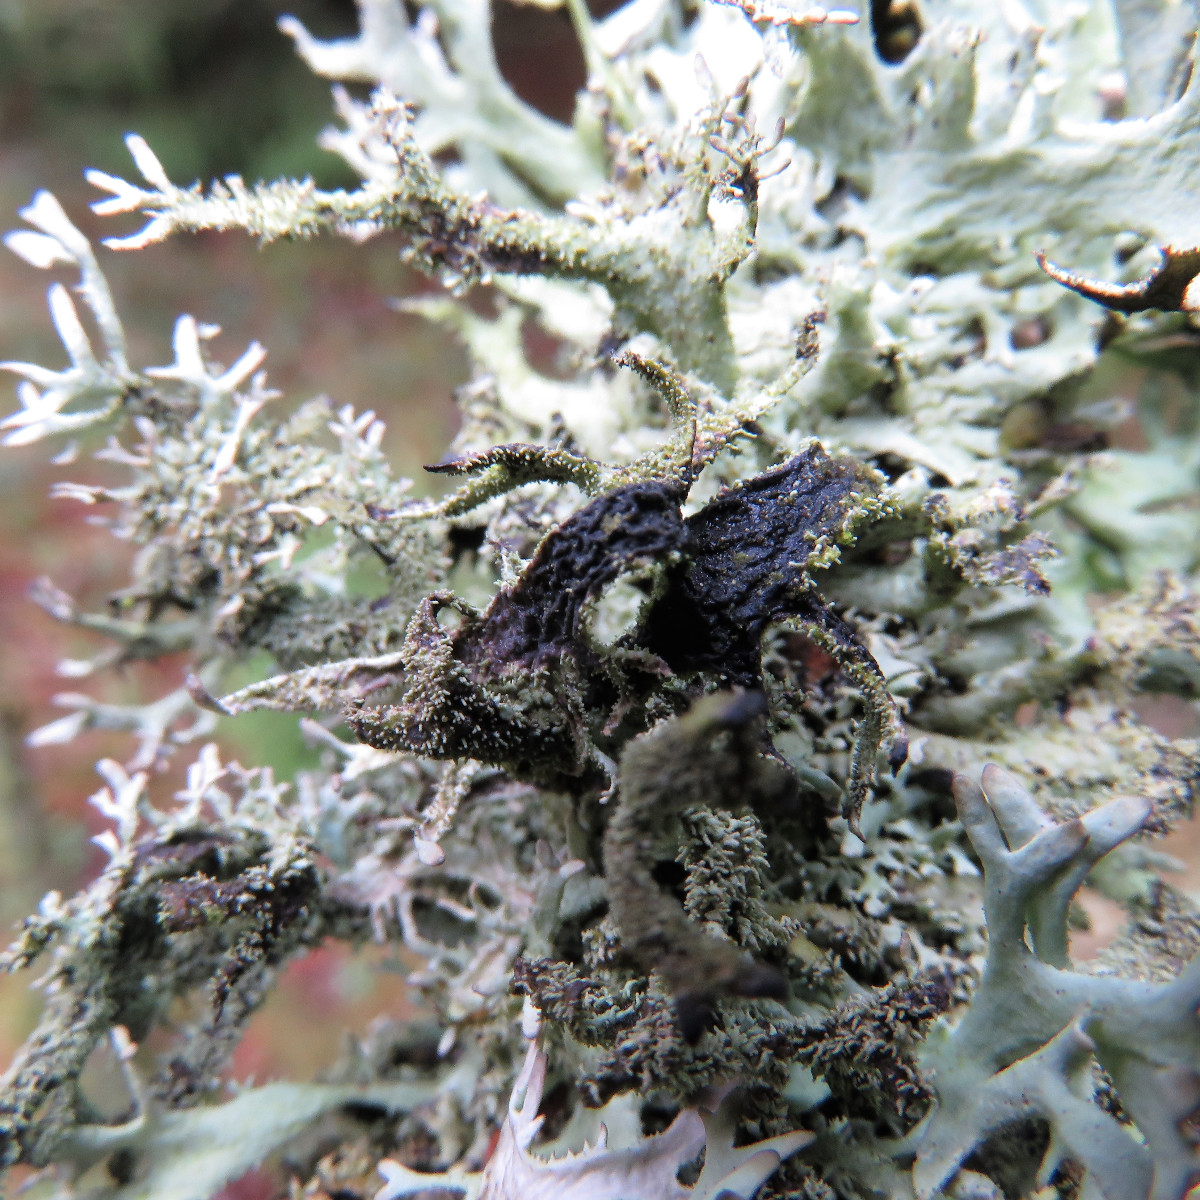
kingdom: Fungi
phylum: Ascomycota
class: Lecanoromycetes
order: Lecanorales
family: Parmeliaceae
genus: Pseudevernia
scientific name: Pseudevernia furfuracea
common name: grå fyrrelav
